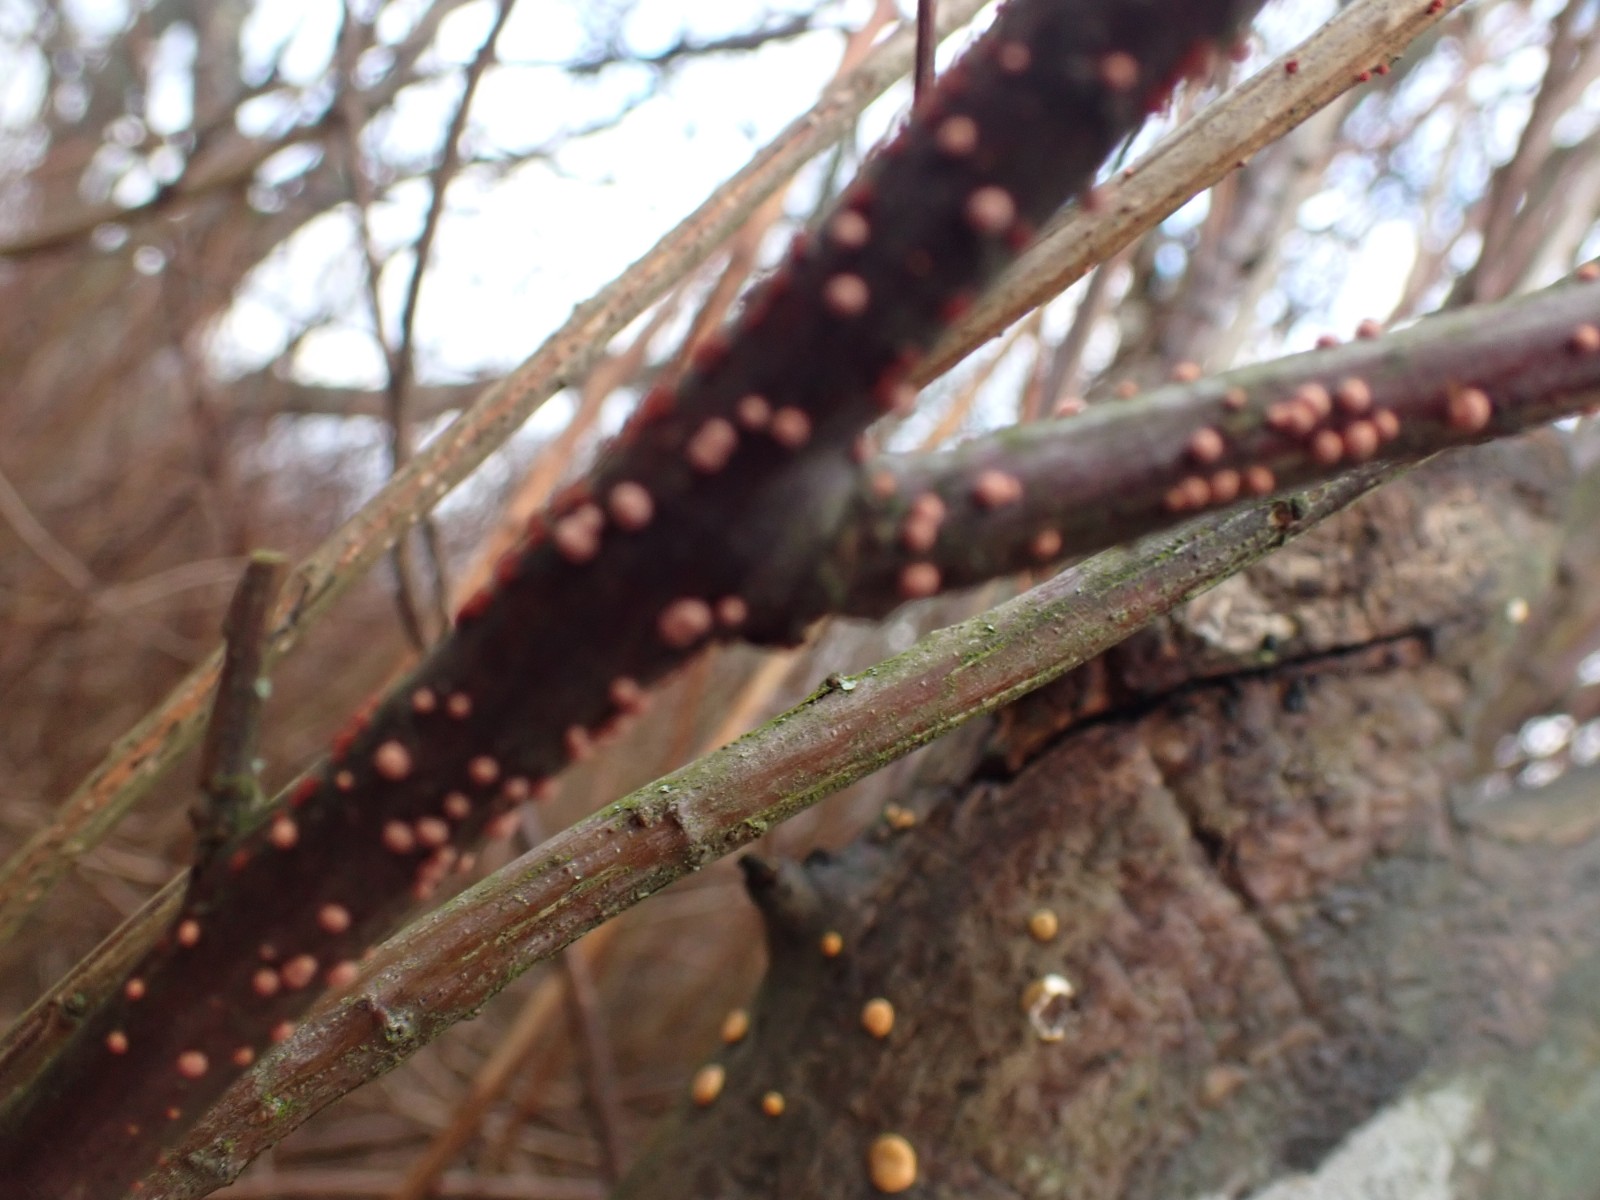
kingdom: Fungi
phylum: Ascomycota
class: Sordariomycetes
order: Hypocreales
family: Nectriaceae
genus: Nectria
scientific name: Nectria cinnabarina
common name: almindelig cinnobersvamp
